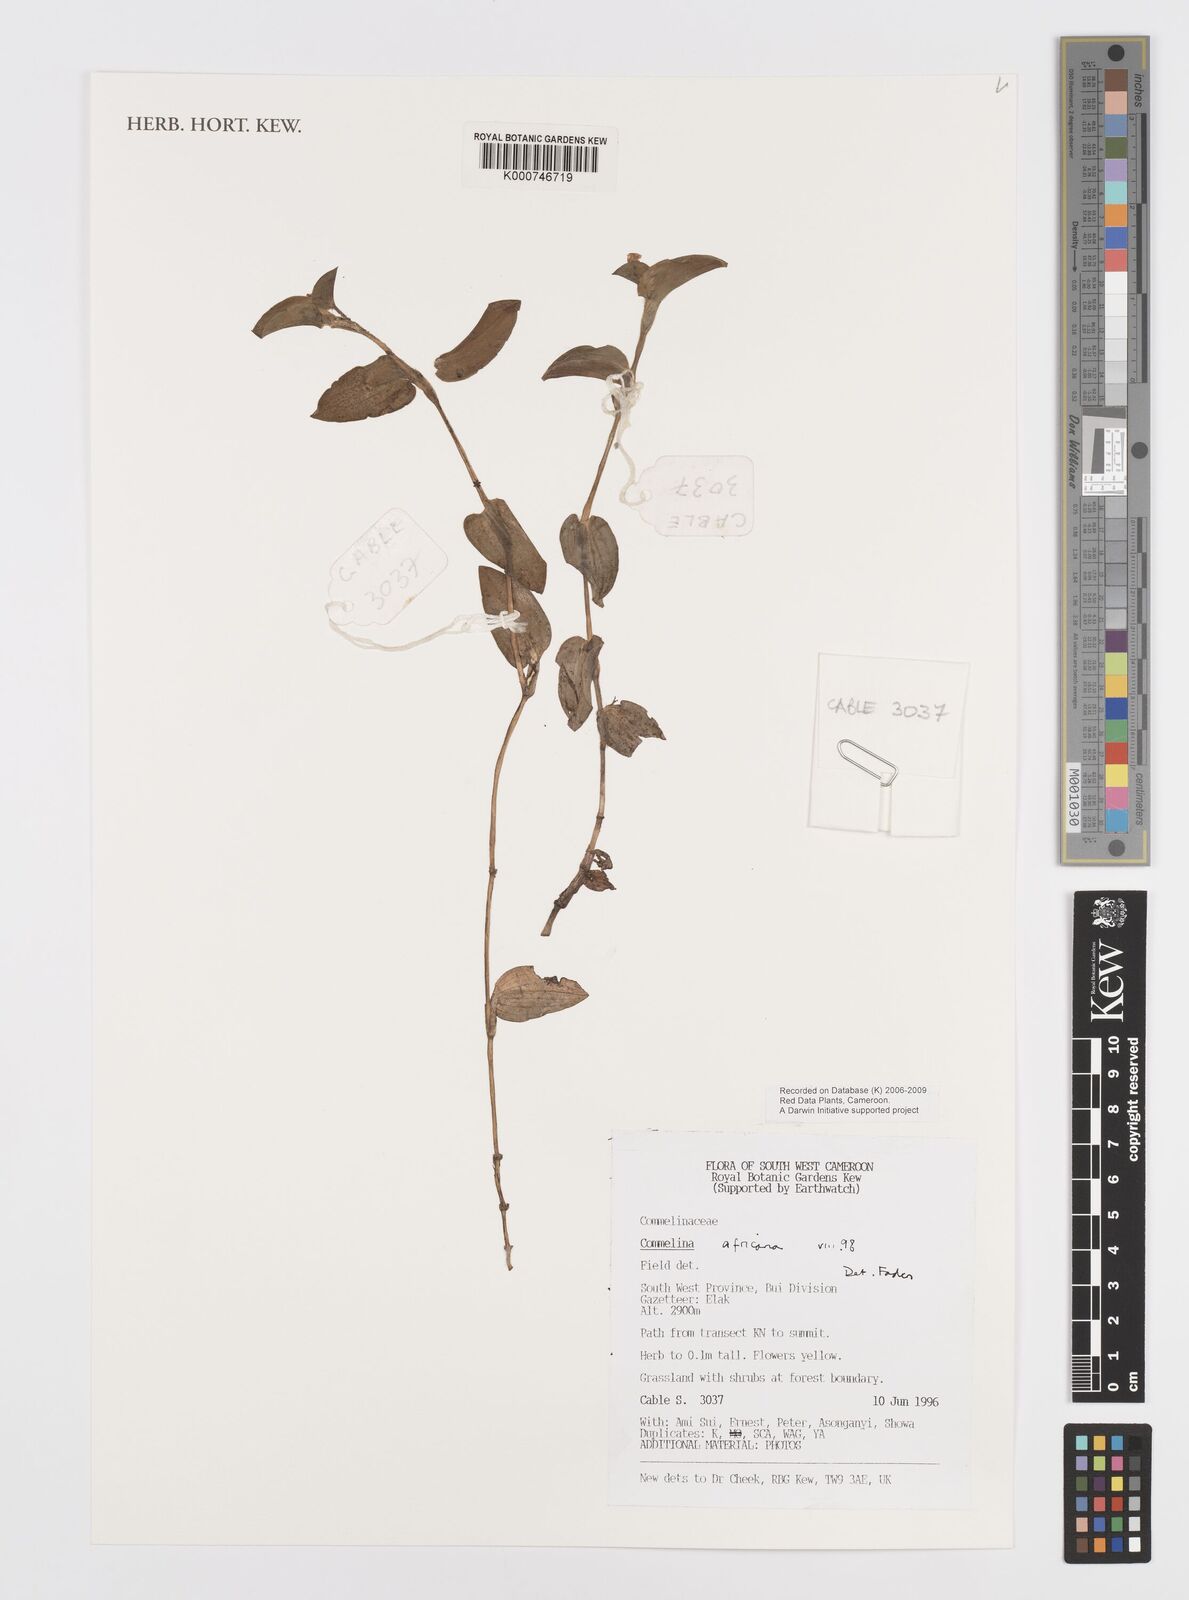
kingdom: Plantae
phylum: Tracheophyta
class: Liliopsida
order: Commelinales
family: Commelinaceae
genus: Commelina
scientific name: Commelina africana
